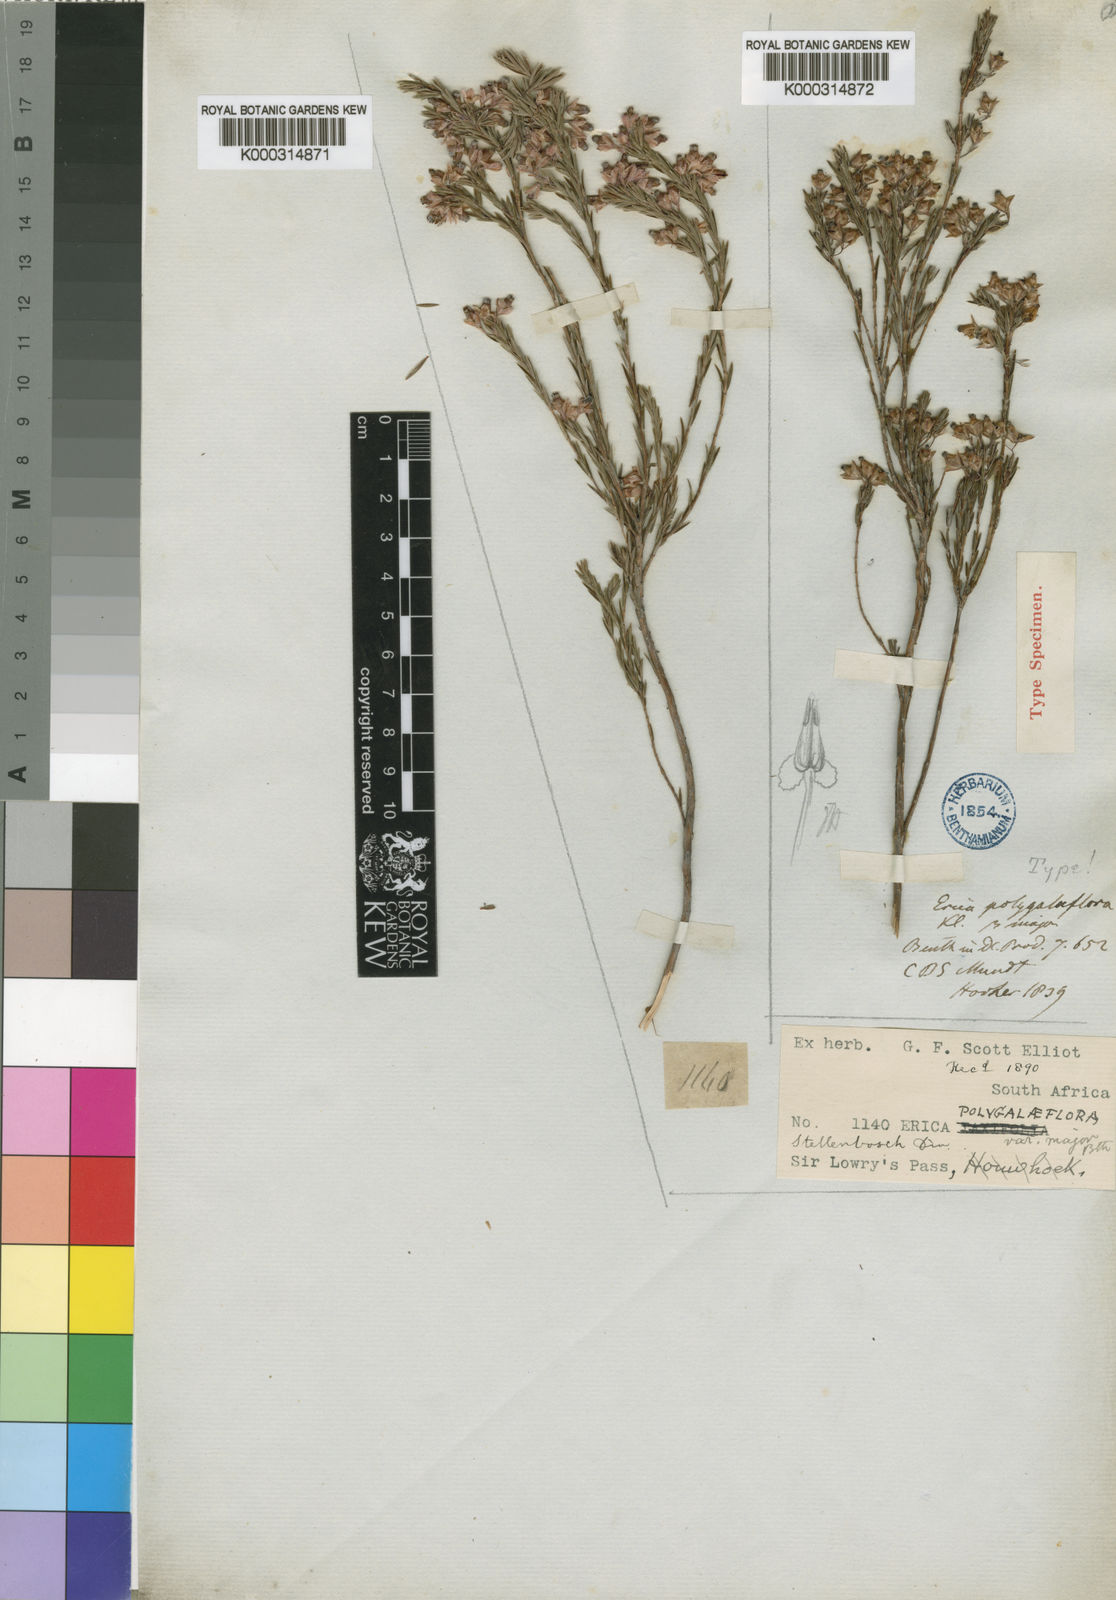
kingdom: Plantae
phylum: Tracheophyta
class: Magnoliopsida
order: Ericales
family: Ericaceae
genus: Erica
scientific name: Erica articularis
